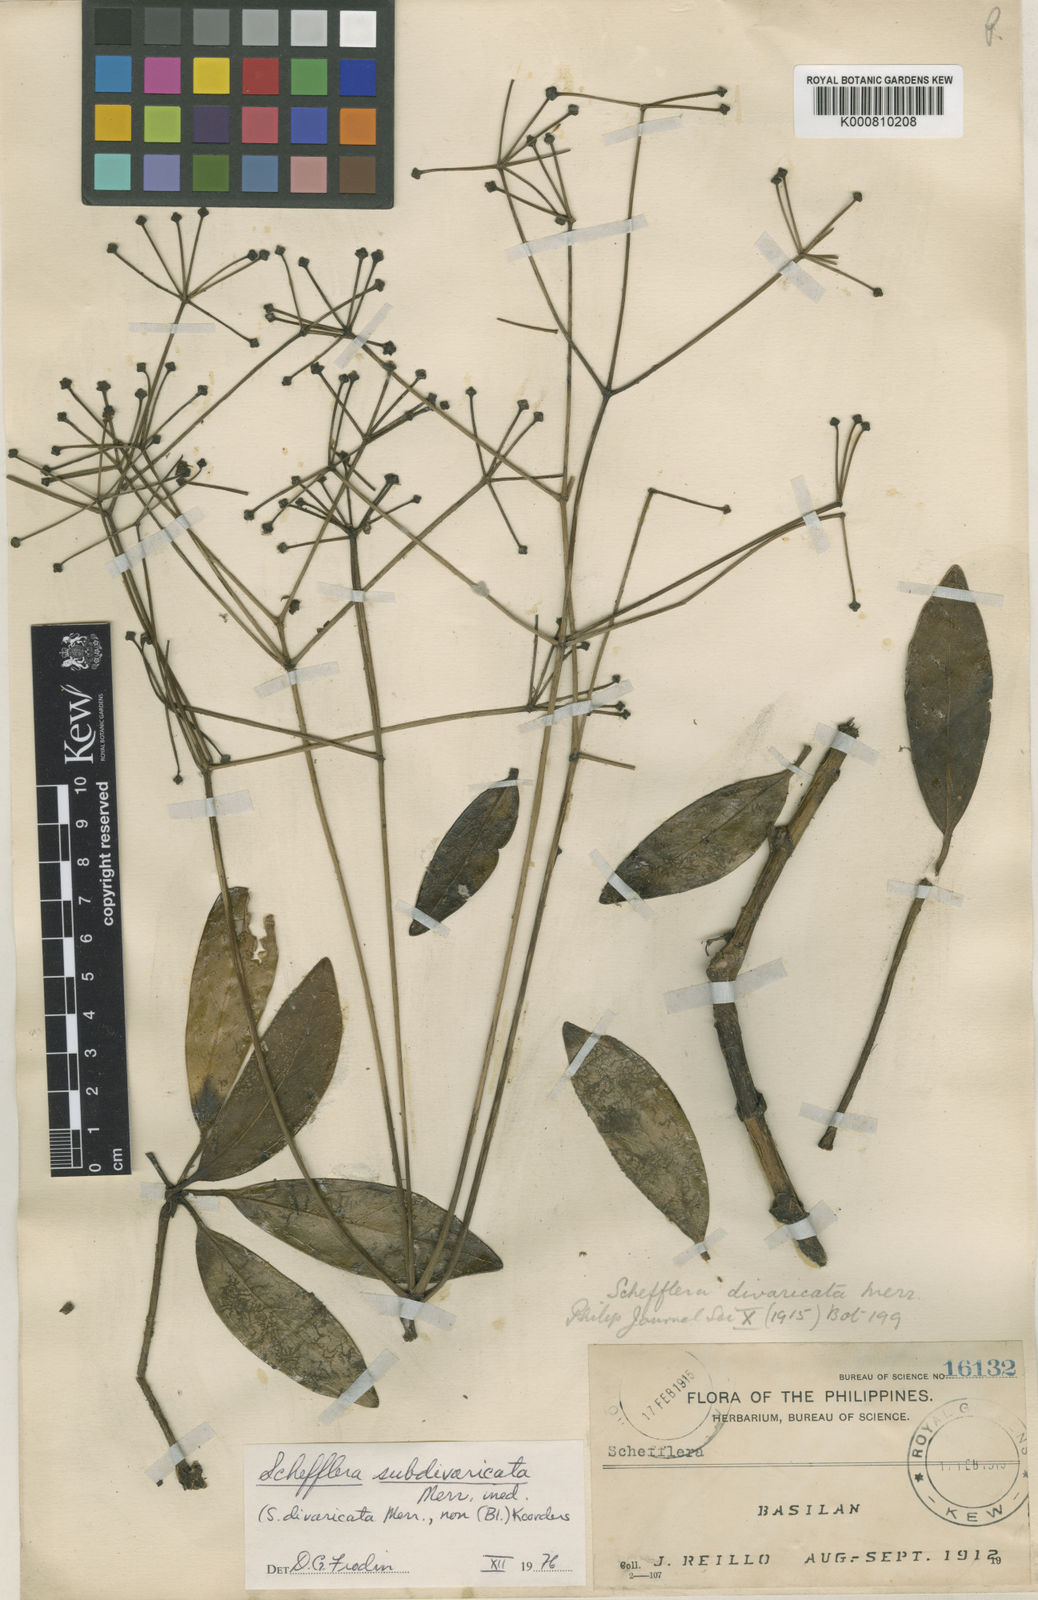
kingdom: Plantae
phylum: Tracheophyta
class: Magnoliopsida
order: Apiales
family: Araliaceae
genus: Heptapleurum
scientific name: Heptapleurum subdivaricatum
